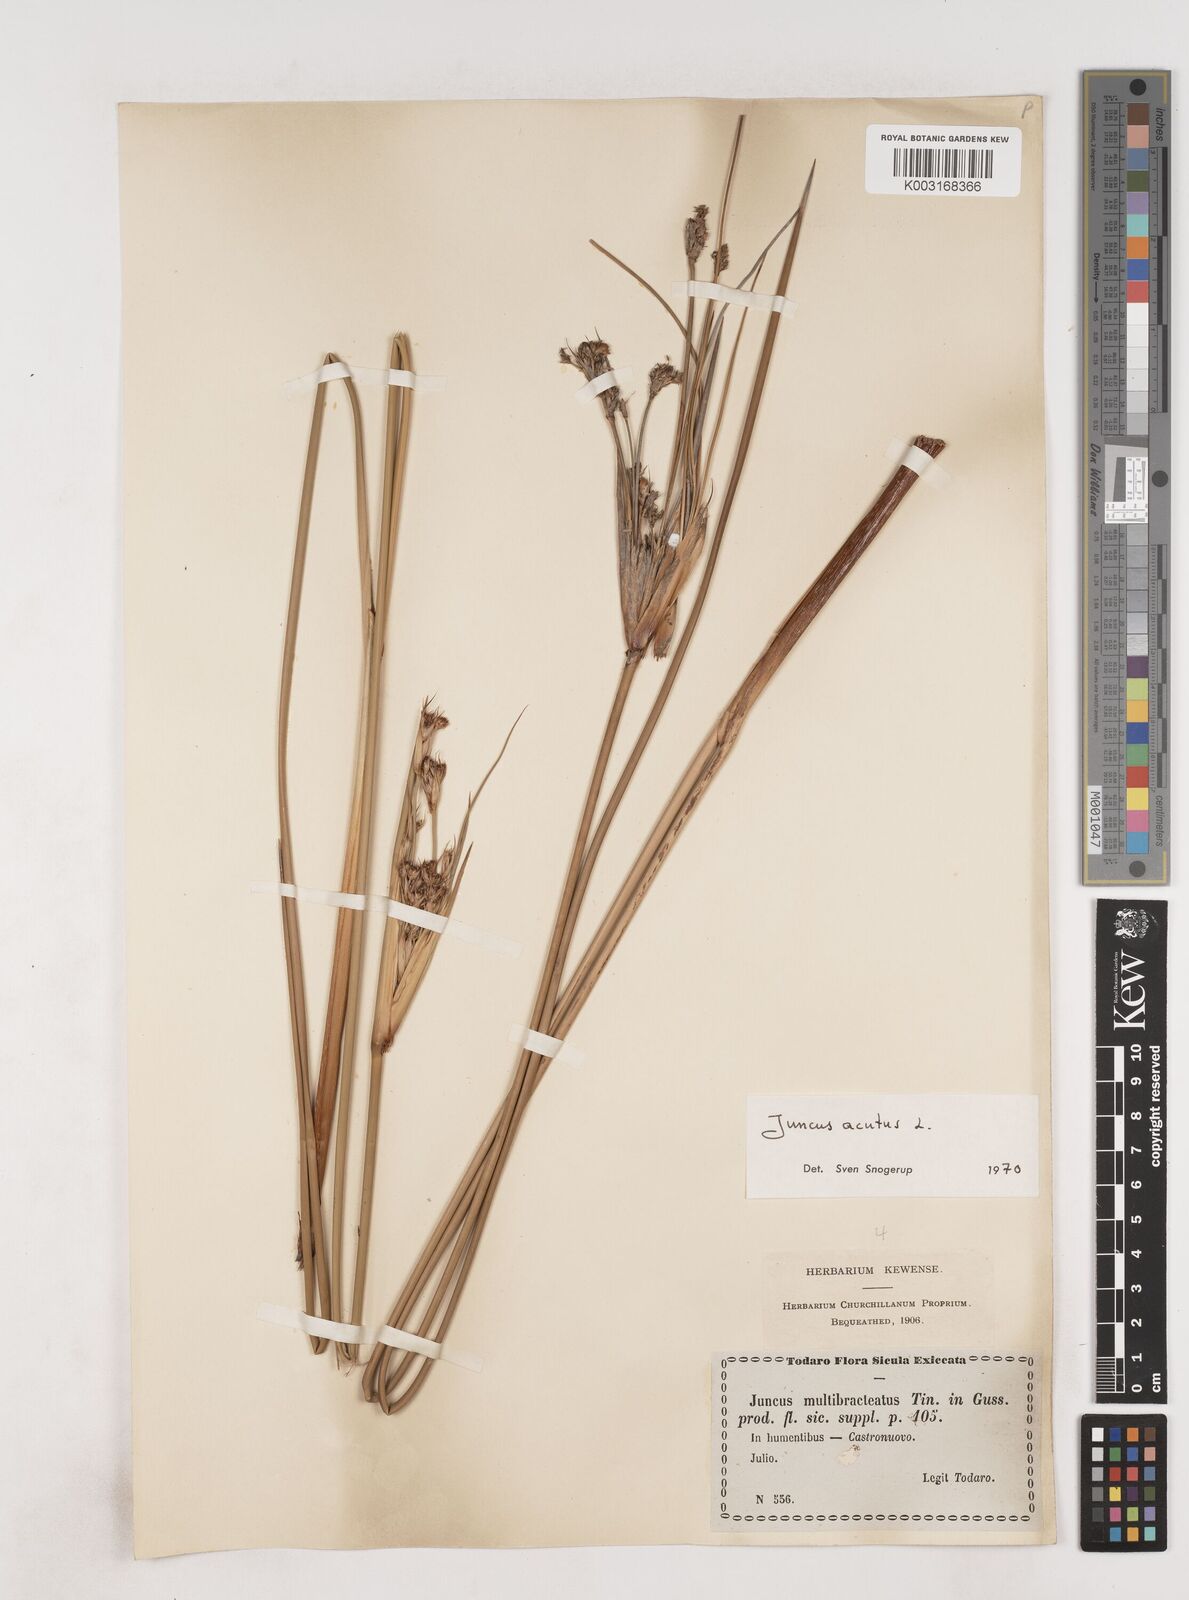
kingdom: Plantae
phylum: Tracheophyta
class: Liliopsida
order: Poales
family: Juncaceae
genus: Juncus
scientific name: Juncus acutus
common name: Sharp rush
